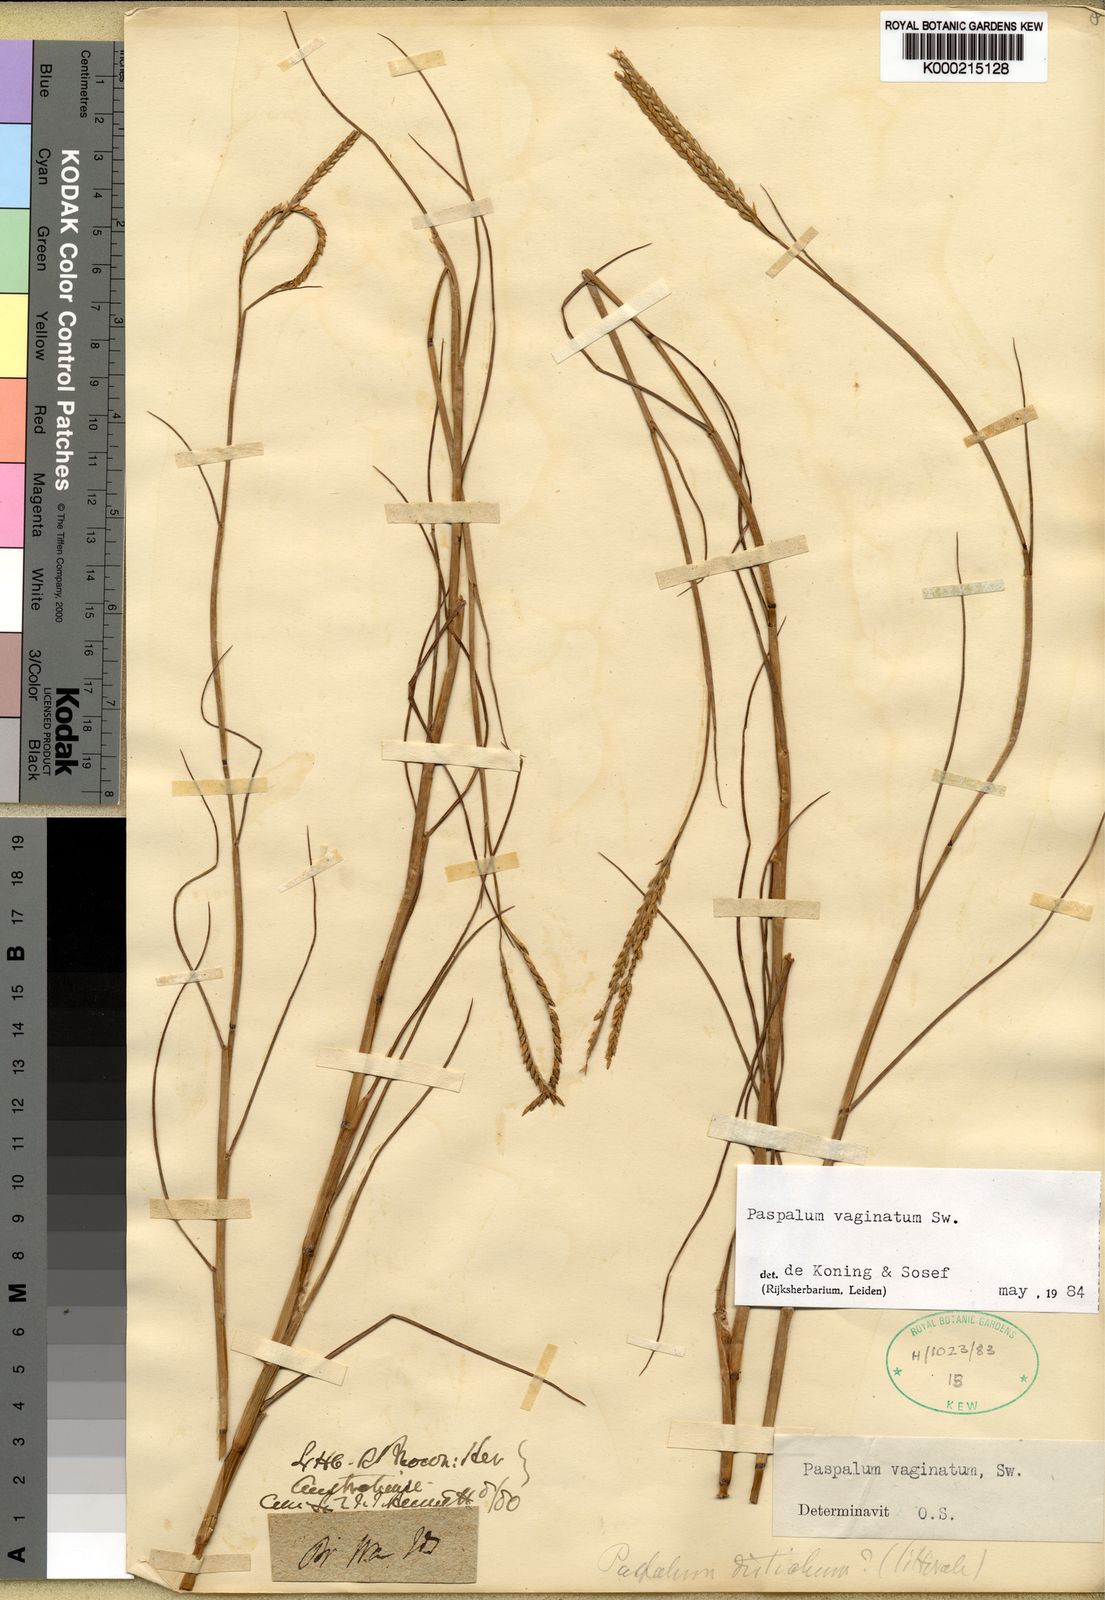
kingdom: Plantae
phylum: Tracheophyta
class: Liliopsida
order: Poales
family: Poaceae
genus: Paspalum
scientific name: Paspalum vaginatum
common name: Seashore paspalum
